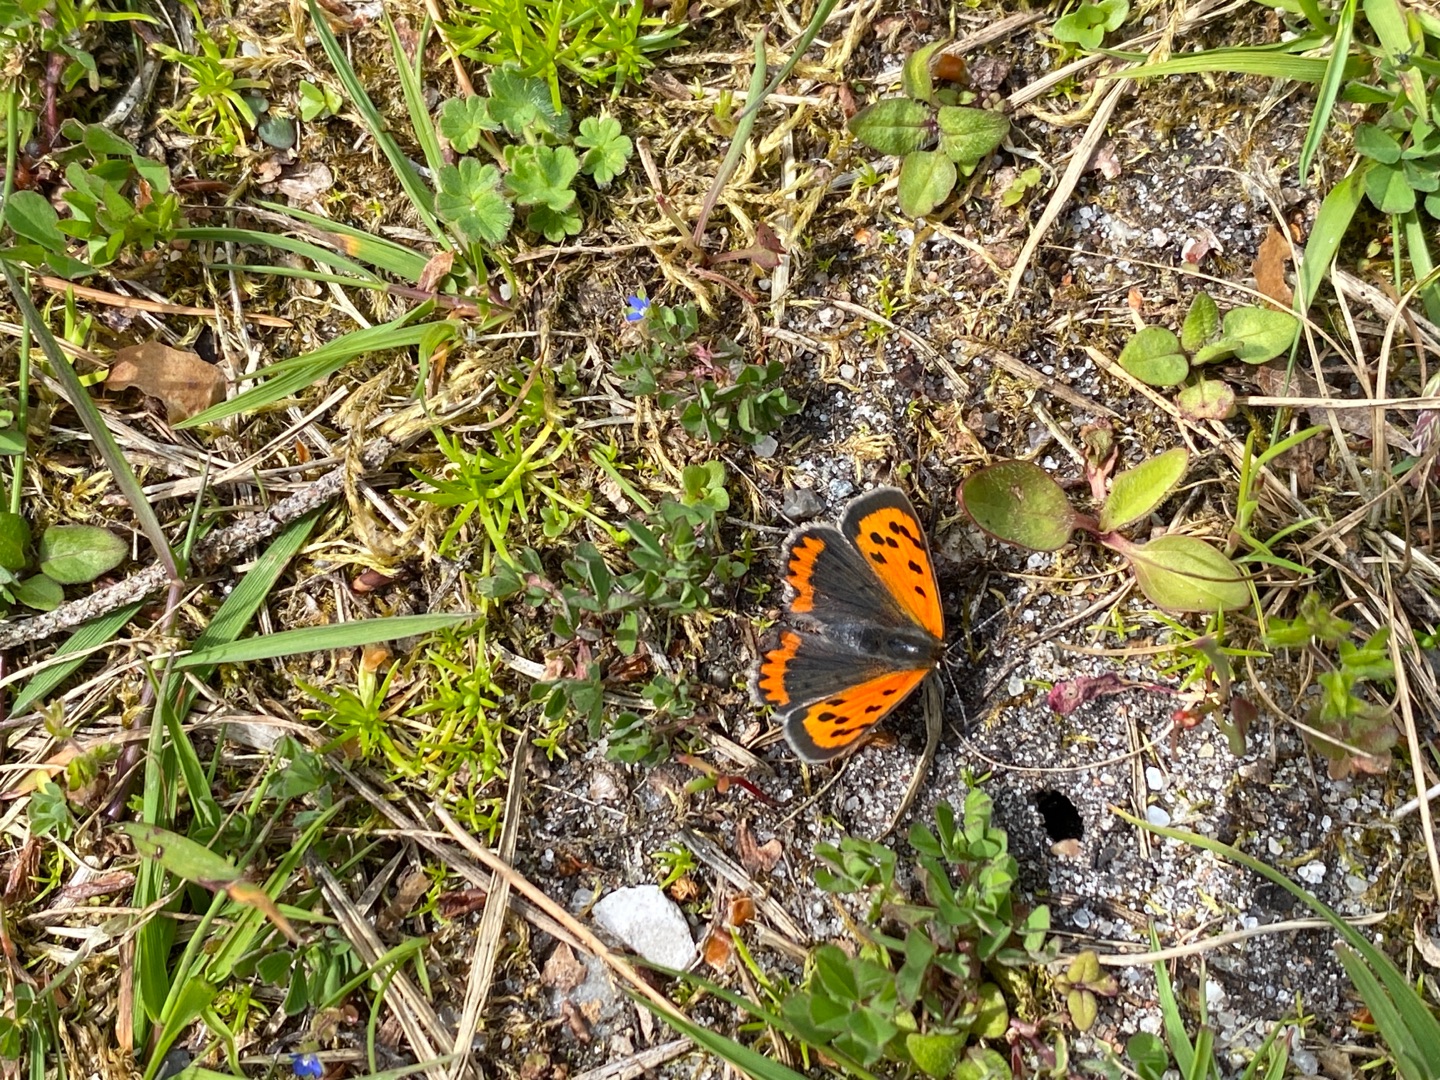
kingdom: Animalia
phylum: Arthropoda
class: Insecta
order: Lepidoptera
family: Lycaenidae
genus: Lycaena
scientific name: Lycaena phlaeas
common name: Lille ildfugl
